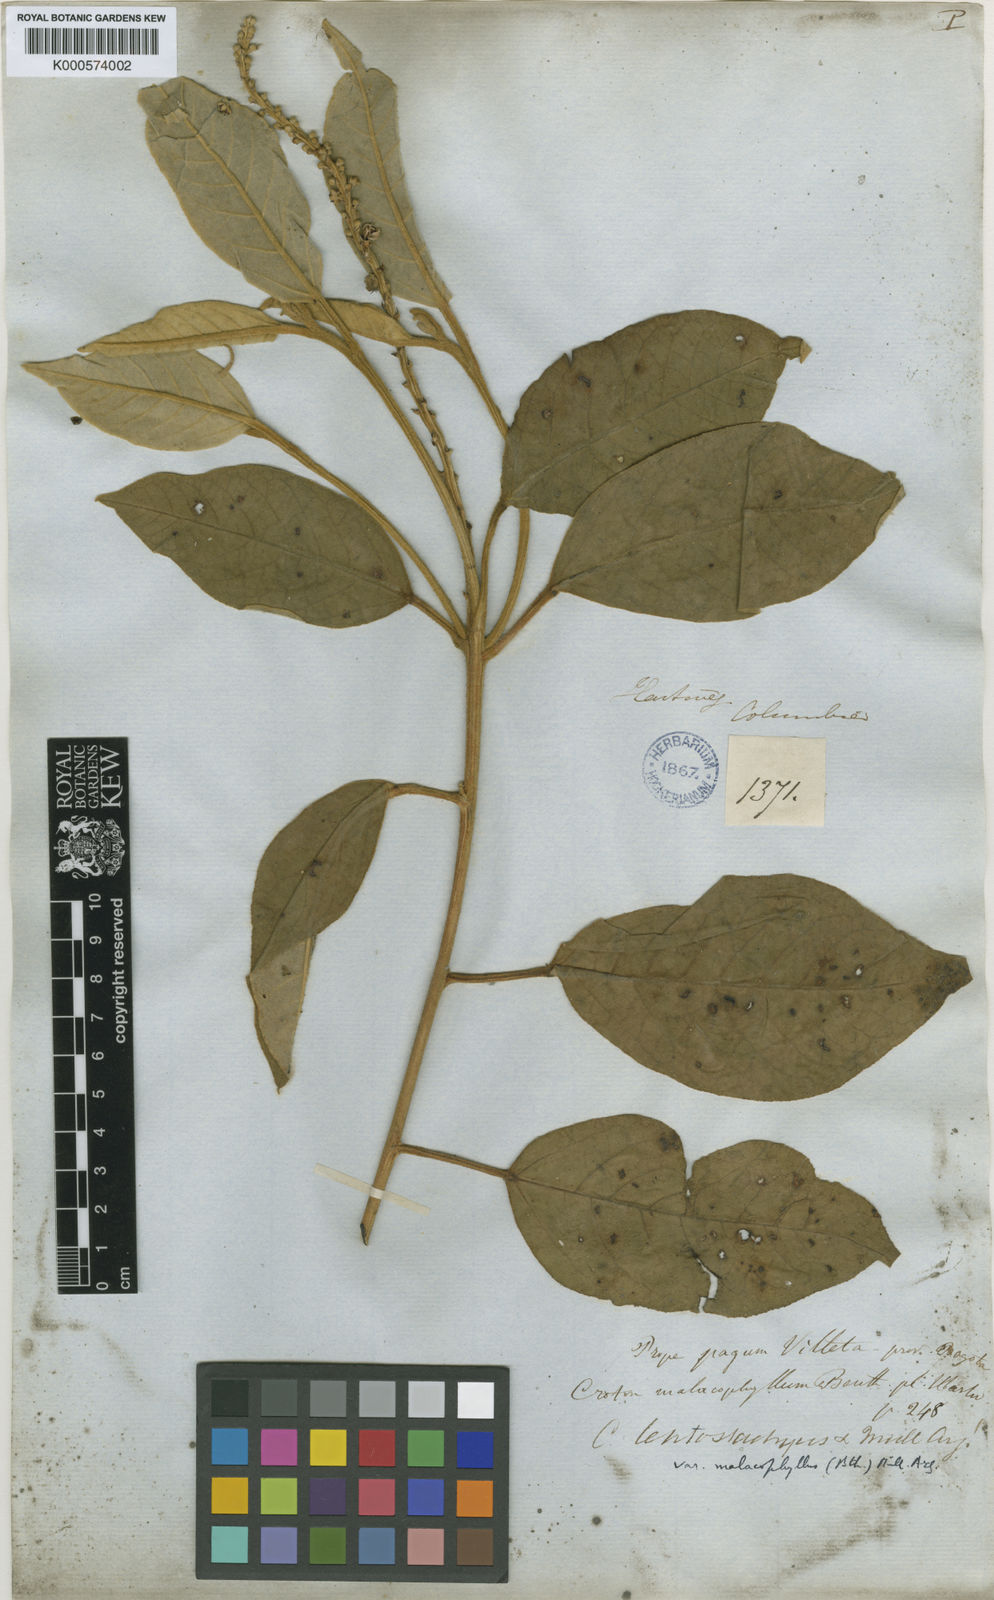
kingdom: Plantae
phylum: Tracheophyta
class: Magnoliopsida
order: Malpighiales
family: Euphorbiaceae
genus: Croton
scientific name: Croton leptostachyus
